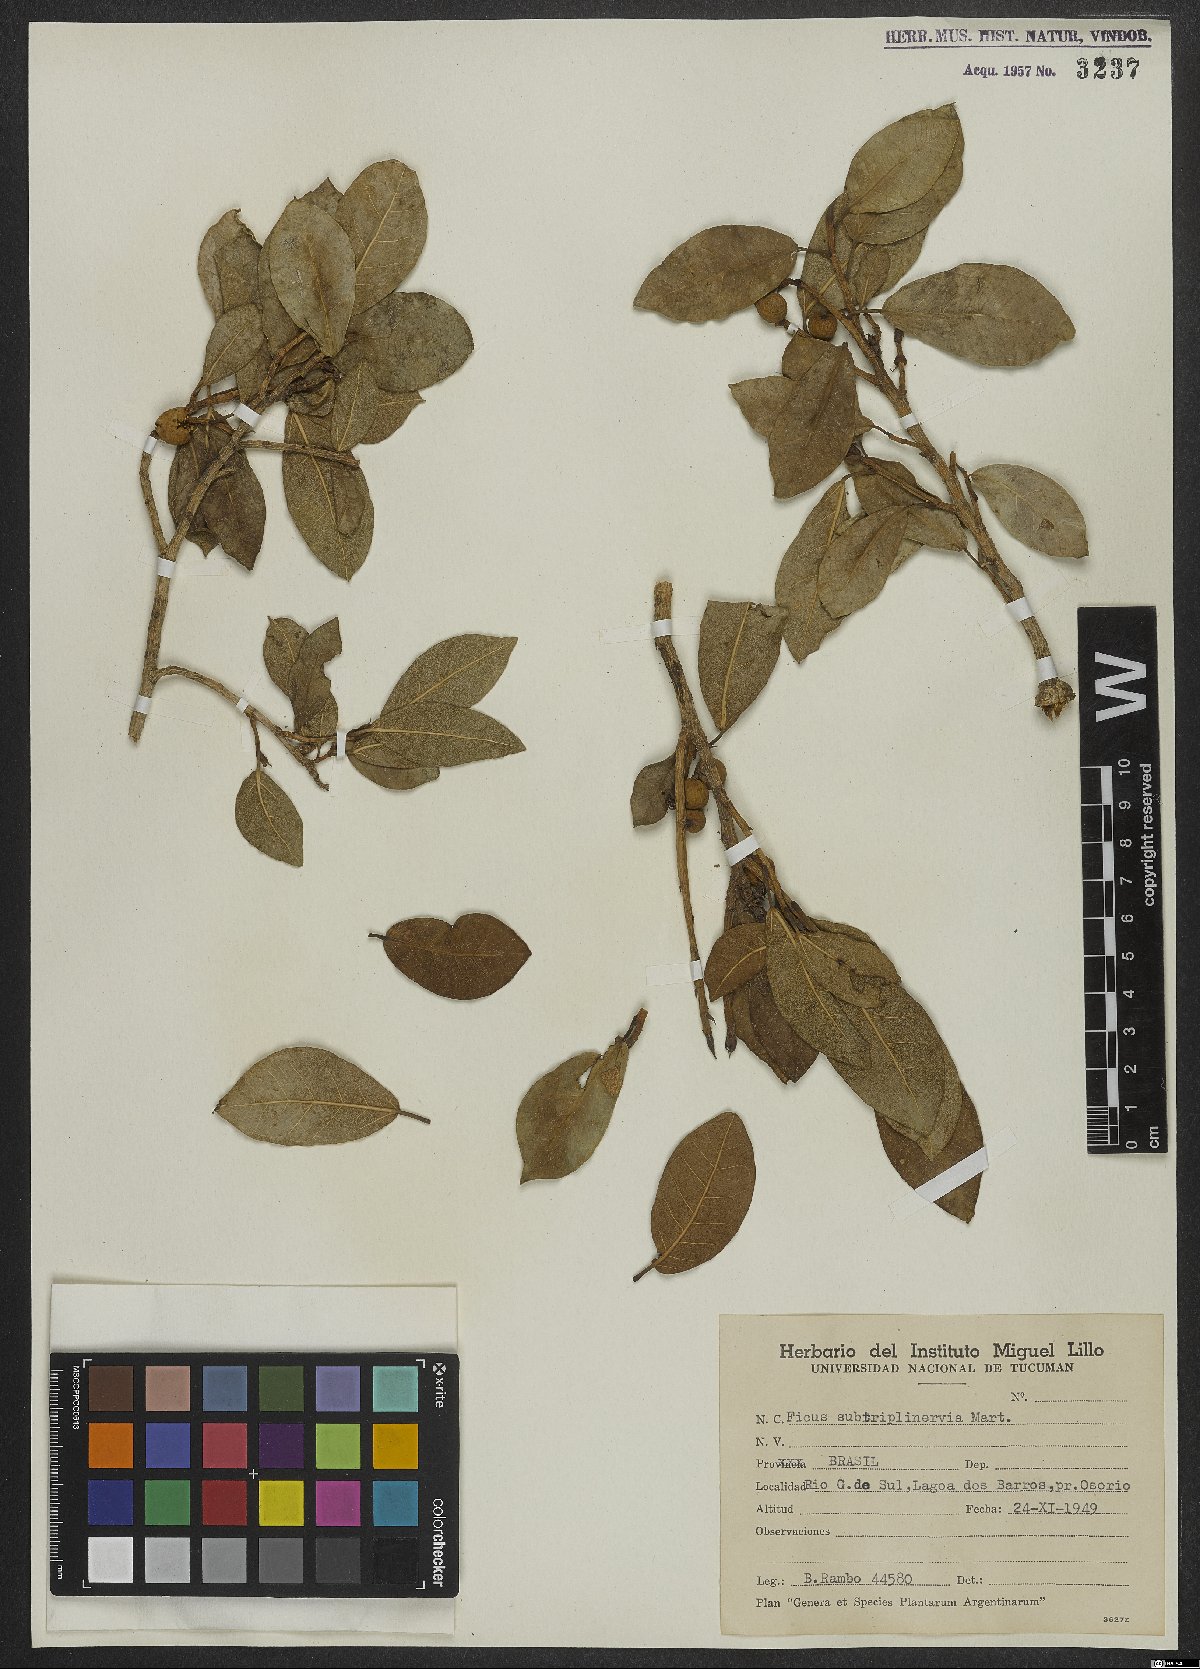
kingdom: Plantae
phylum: Tracheophyta
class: Magnoliopsida
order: Rosales
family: Moraceae
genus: Ficus
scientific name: Ficus pertusa
